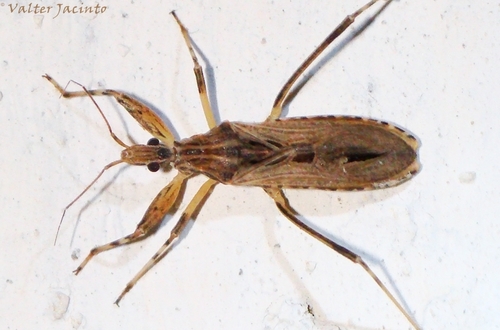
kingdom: Animalia
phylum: Arthropoda
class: Insecta
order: Hemiptera
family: Reduviidae
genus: Oncocephalus
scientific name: Oncocephalus pilicornis
